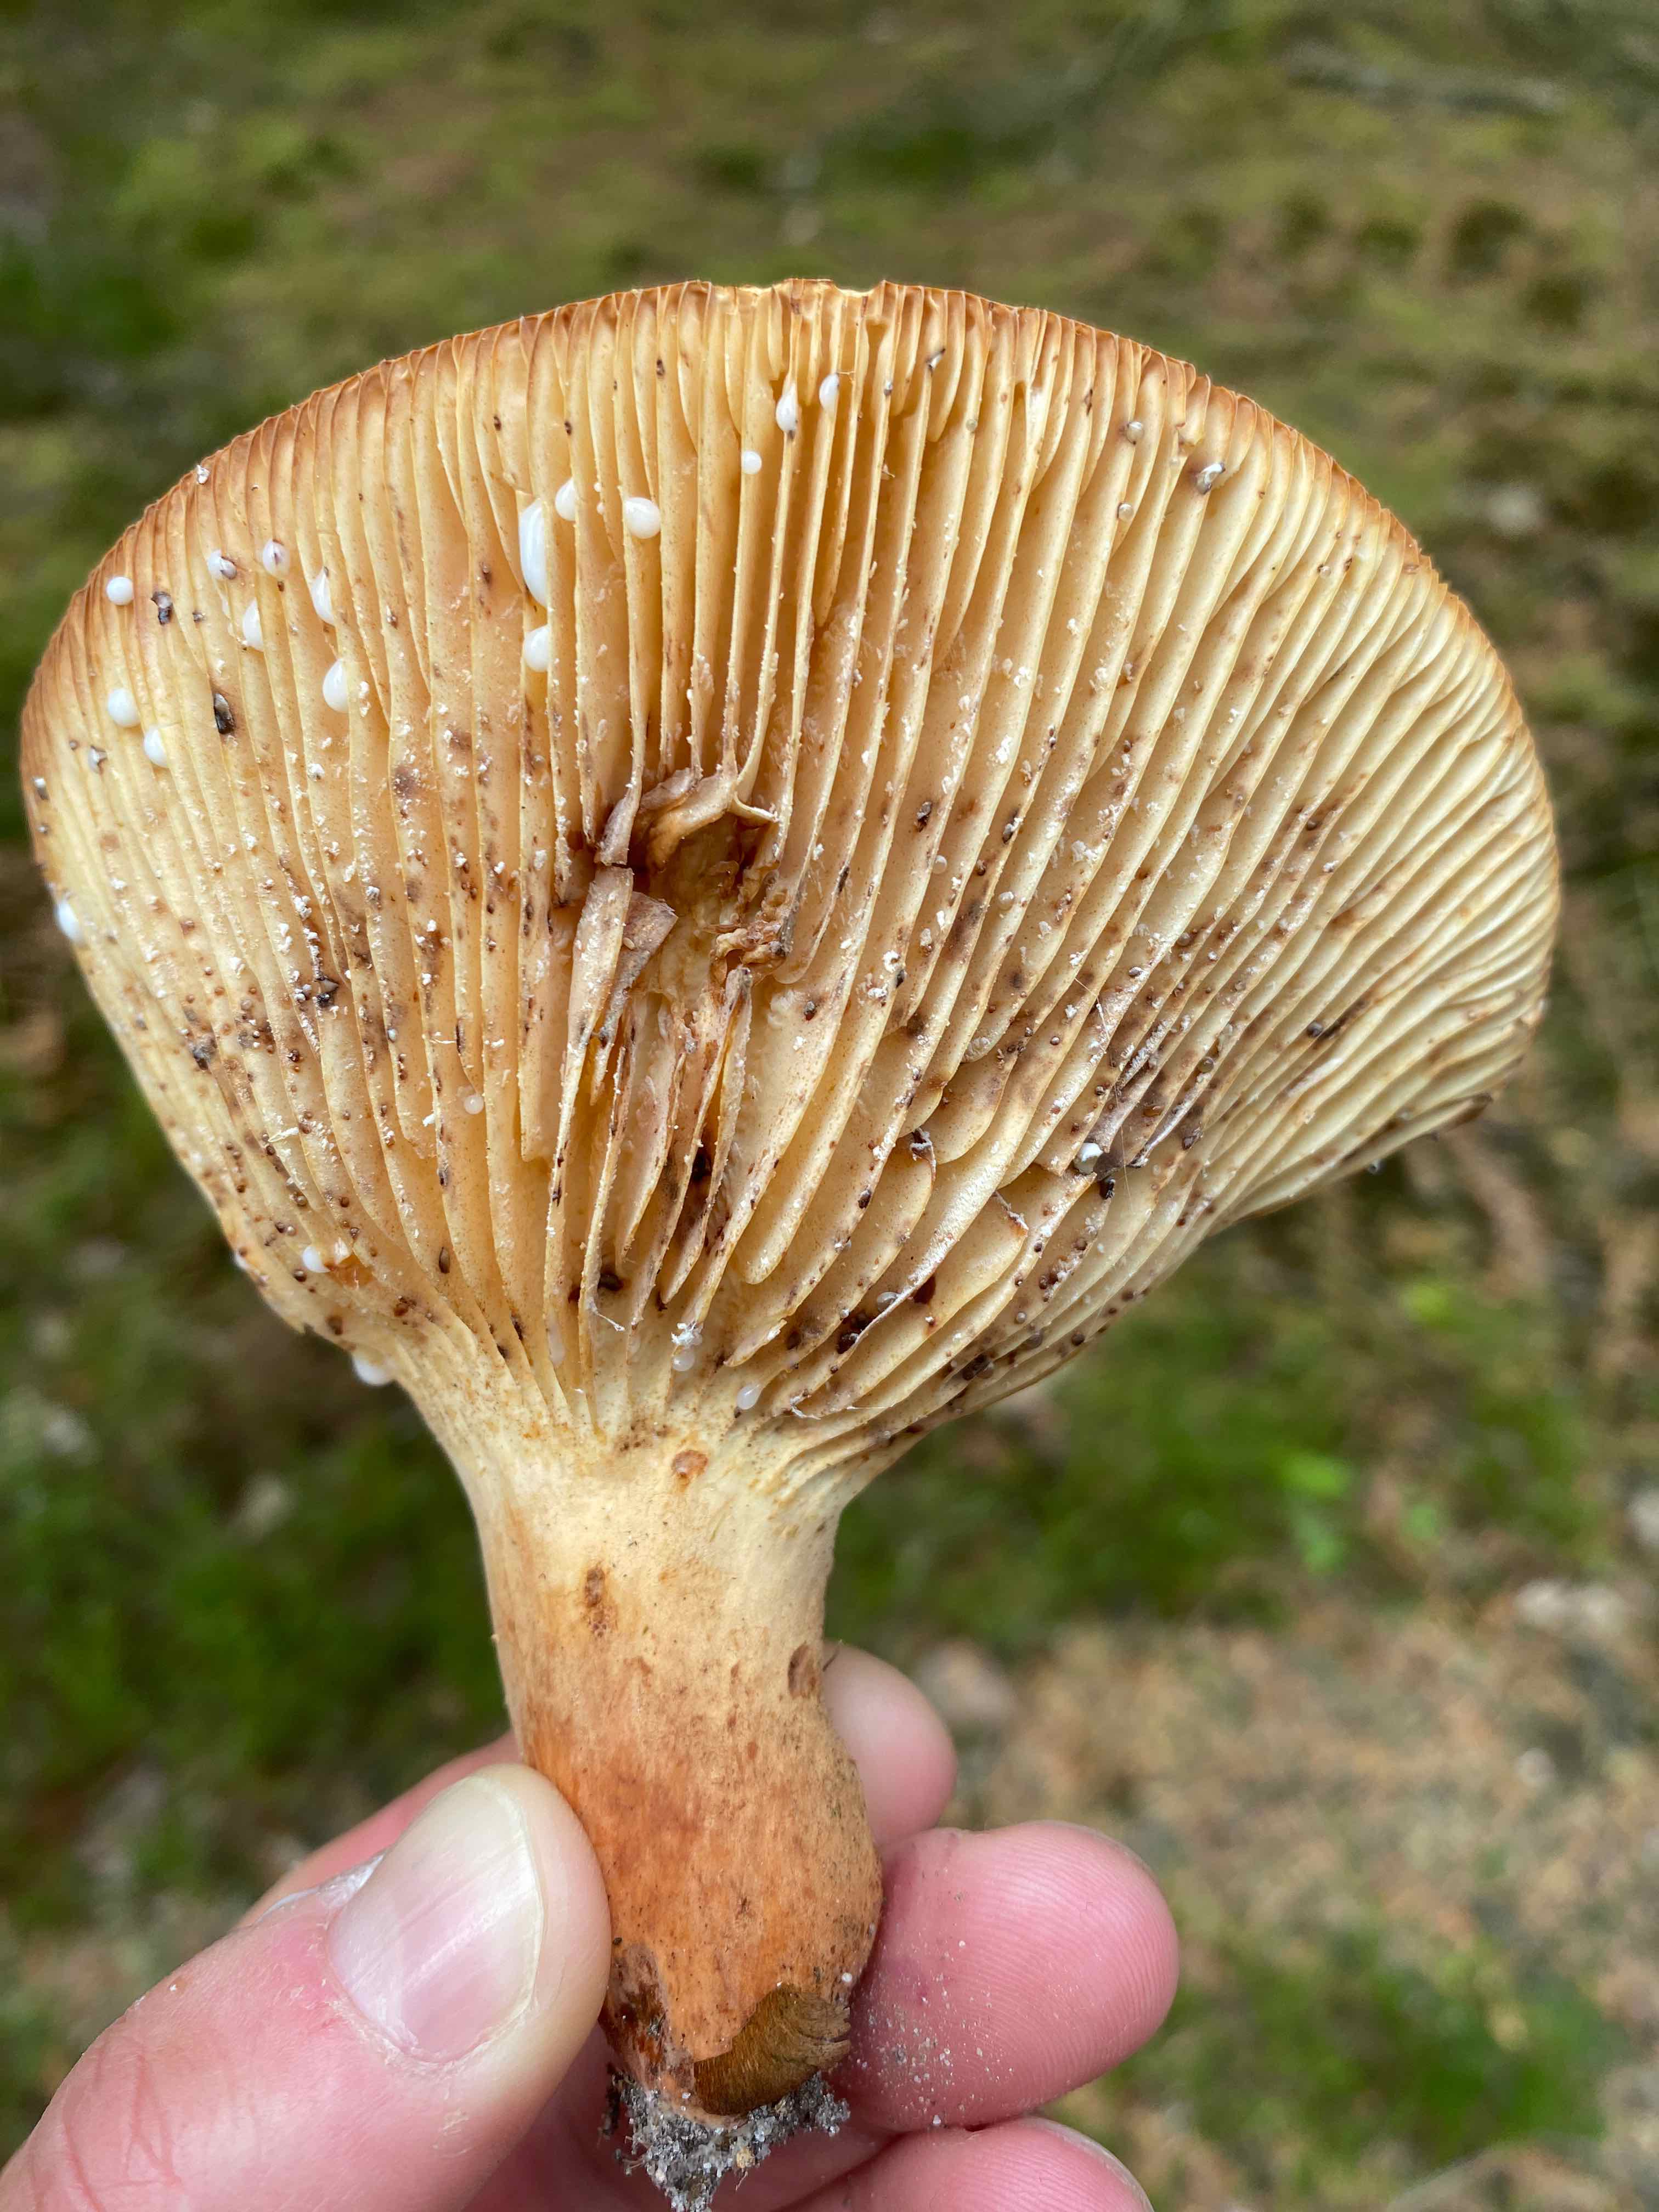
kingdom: Fungi
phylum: Basidiomycota
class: Agaricomycetes
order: Russulales
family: Russulaceae
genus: Lactifluus
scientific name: Lactifluus
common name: mælkehat
